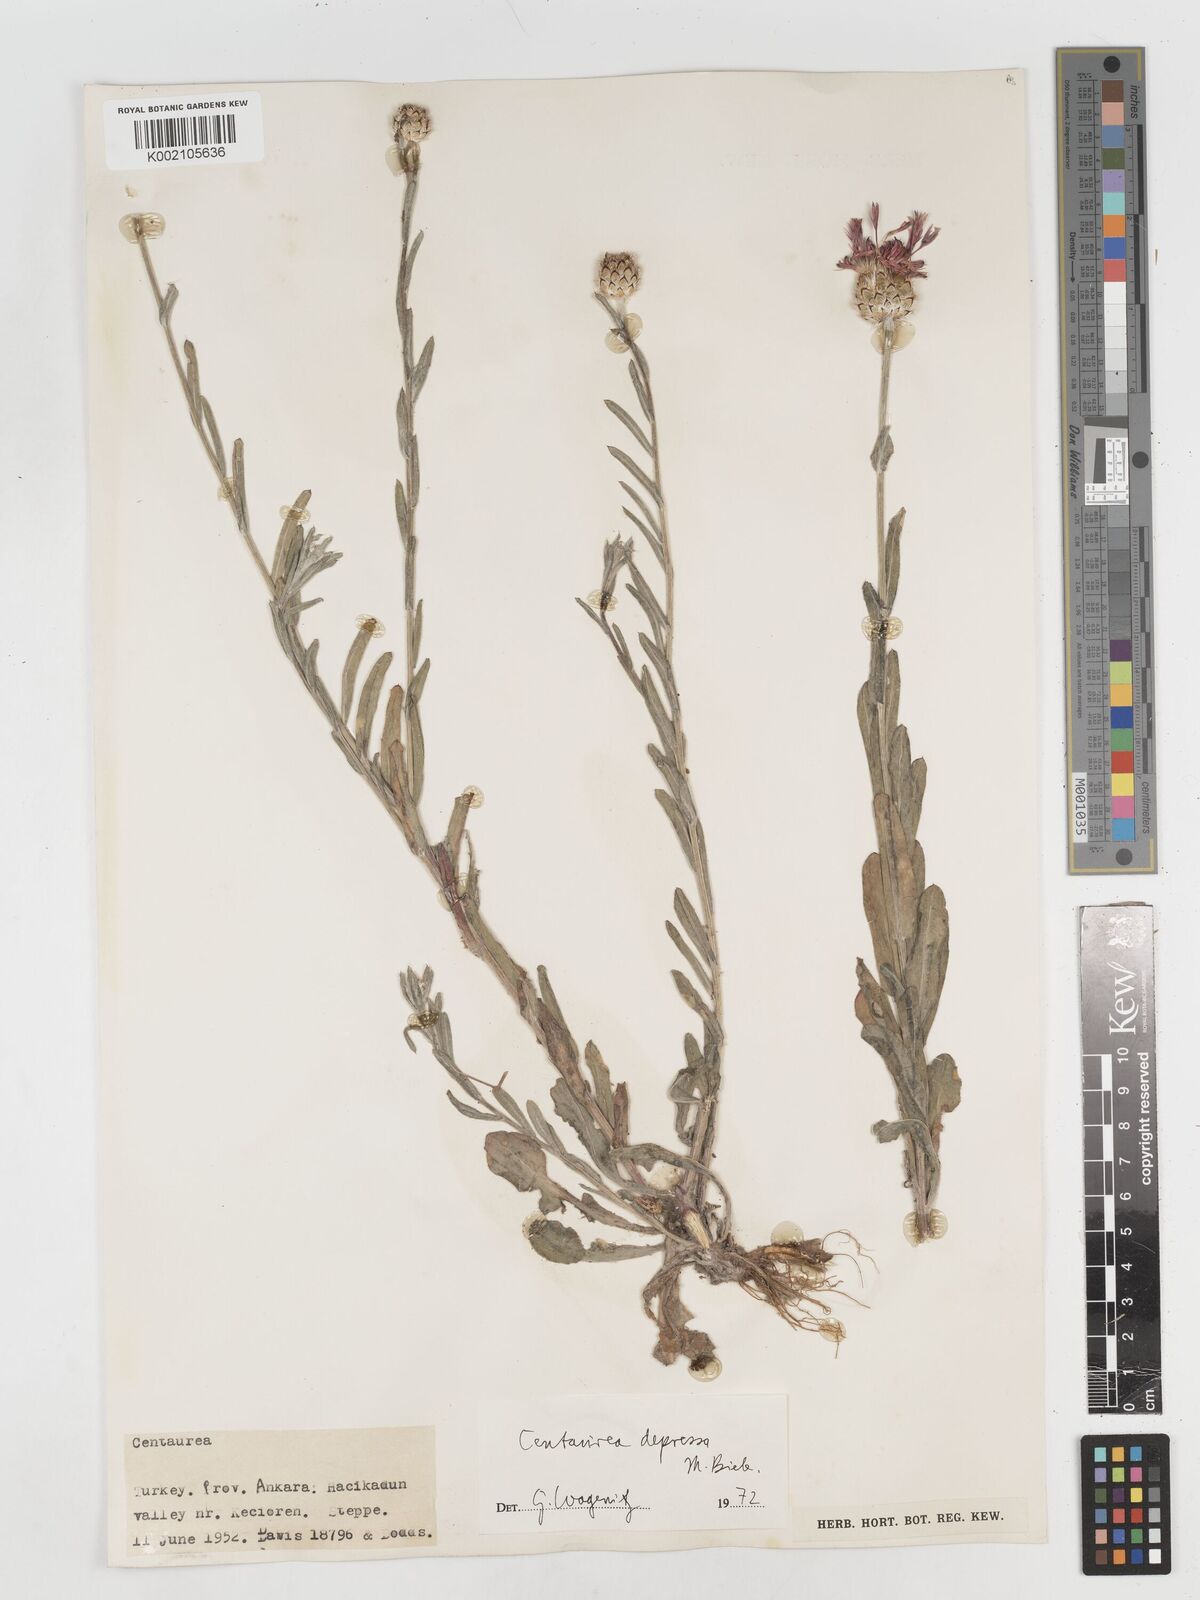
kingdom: Plantae
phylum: Tracheophyta
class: Magnoliopsida
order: Asterales
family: Asteraceae
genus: Centaurea
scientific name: Centaurea depressa
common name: Iranian knapweed
